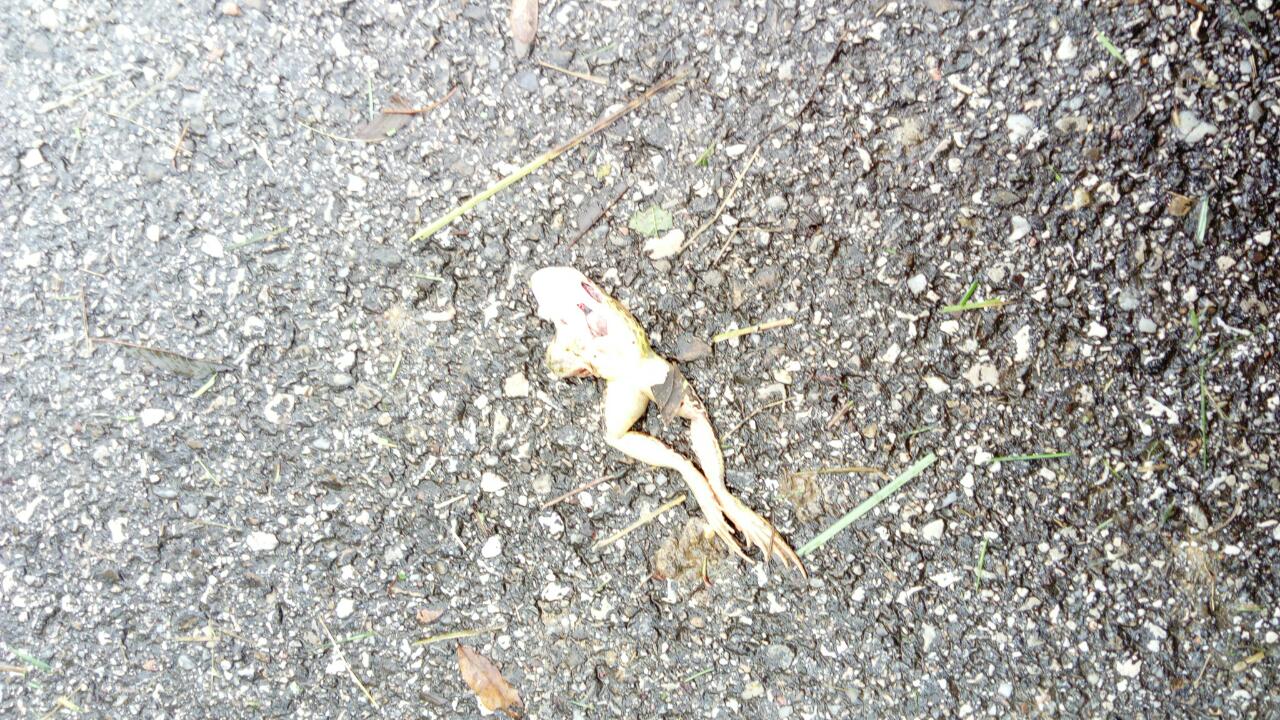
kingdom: Animalia
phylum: Chordata
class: Amphibia
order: Anura
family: Ranidae
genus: Rana
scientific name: Rana dalmatina
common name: Agile frog
